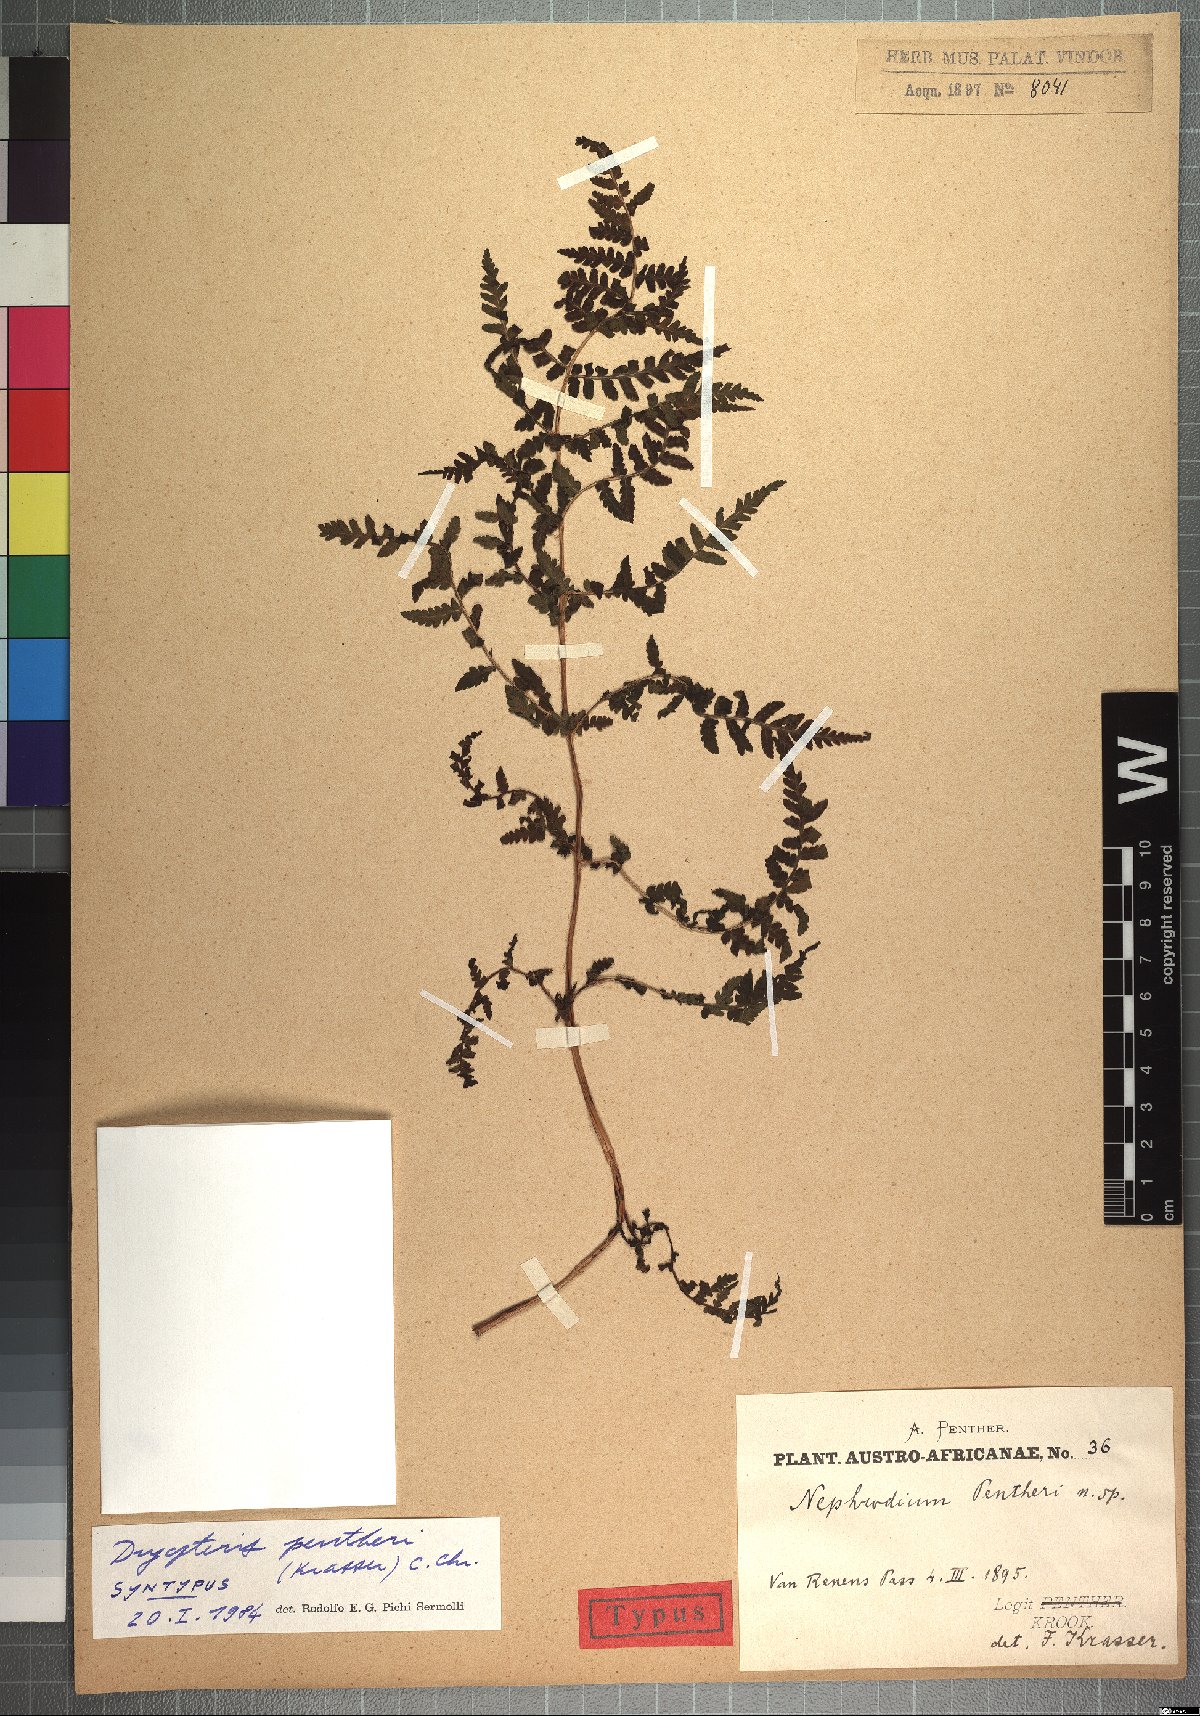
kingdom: Plantae
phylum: Tracheophyta
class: Polypodiopsida
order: Polypodiales
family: Dryopteridaceae
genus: Dryopteris
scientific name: Dryopteris pentheri
